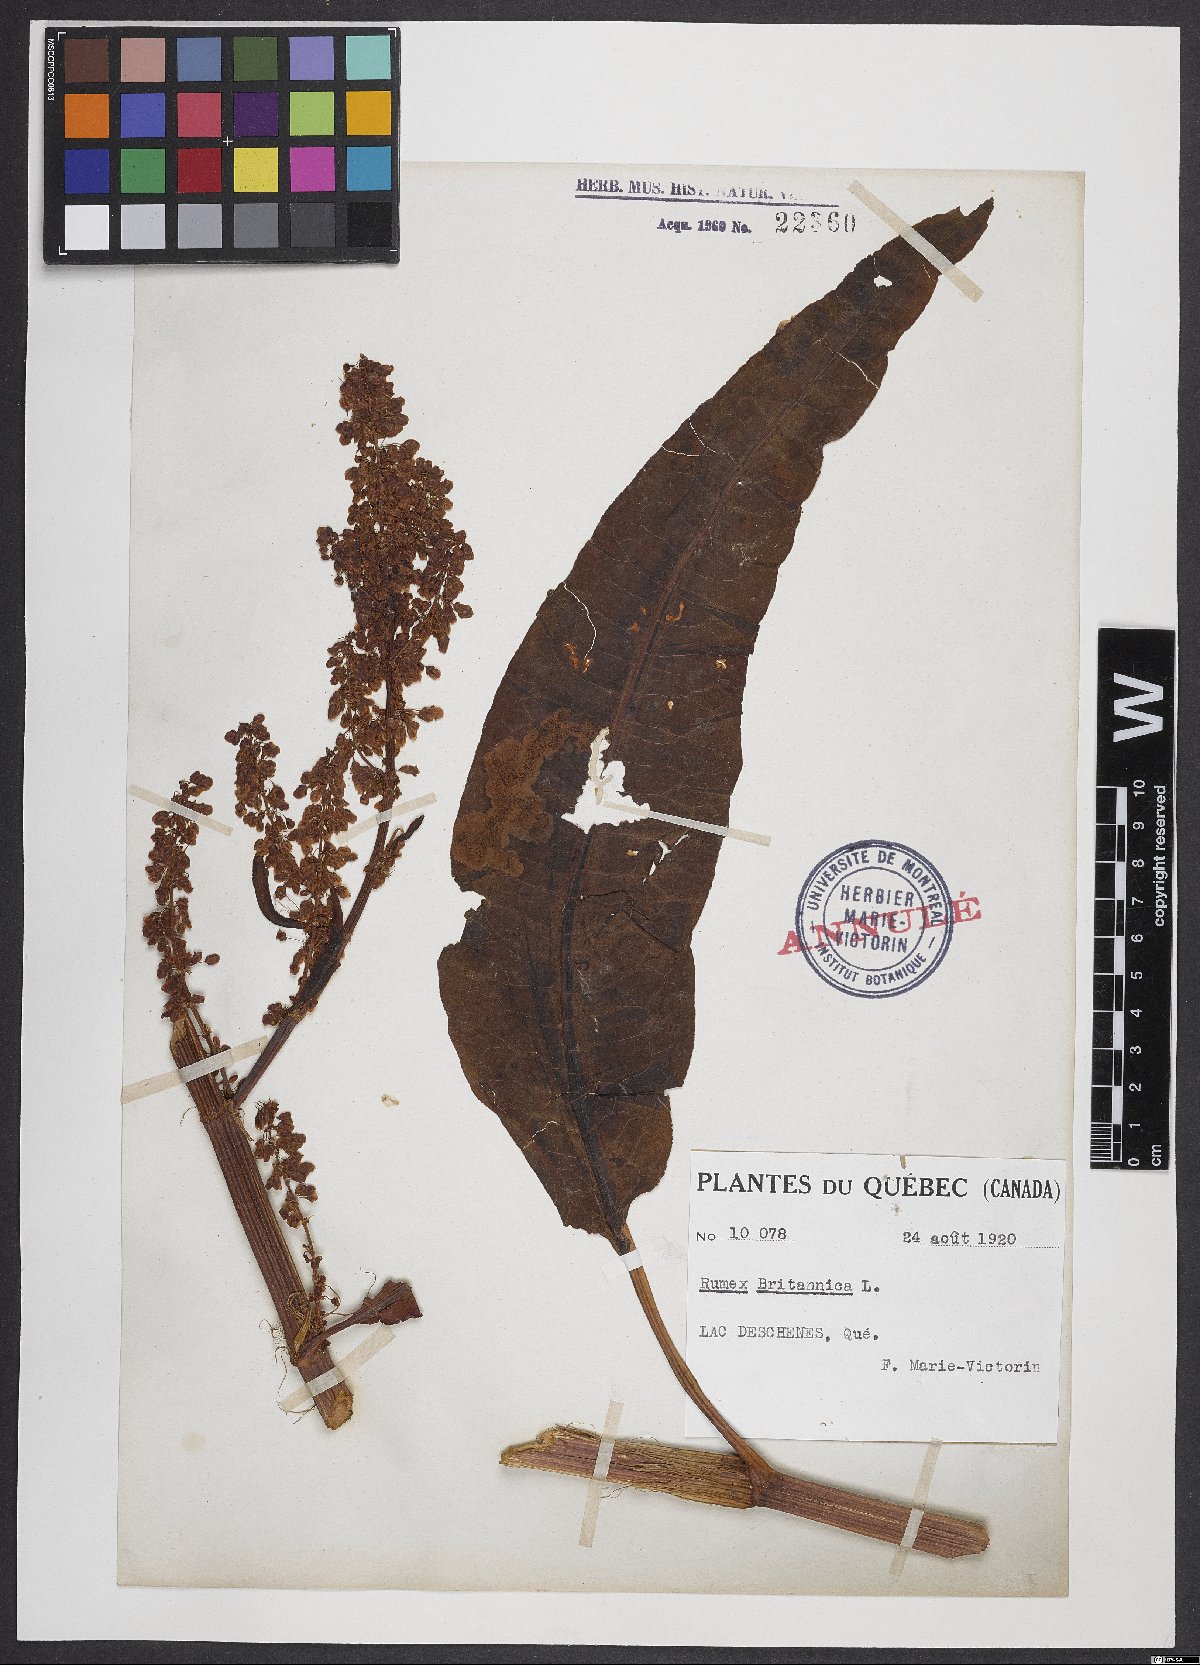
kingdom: Plantae
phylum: Tracheophyta
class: Magnoliopsida
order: Caryophyllales
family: Polygonaceae
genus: Rumex
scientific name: Rumex britannica
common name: British dock
